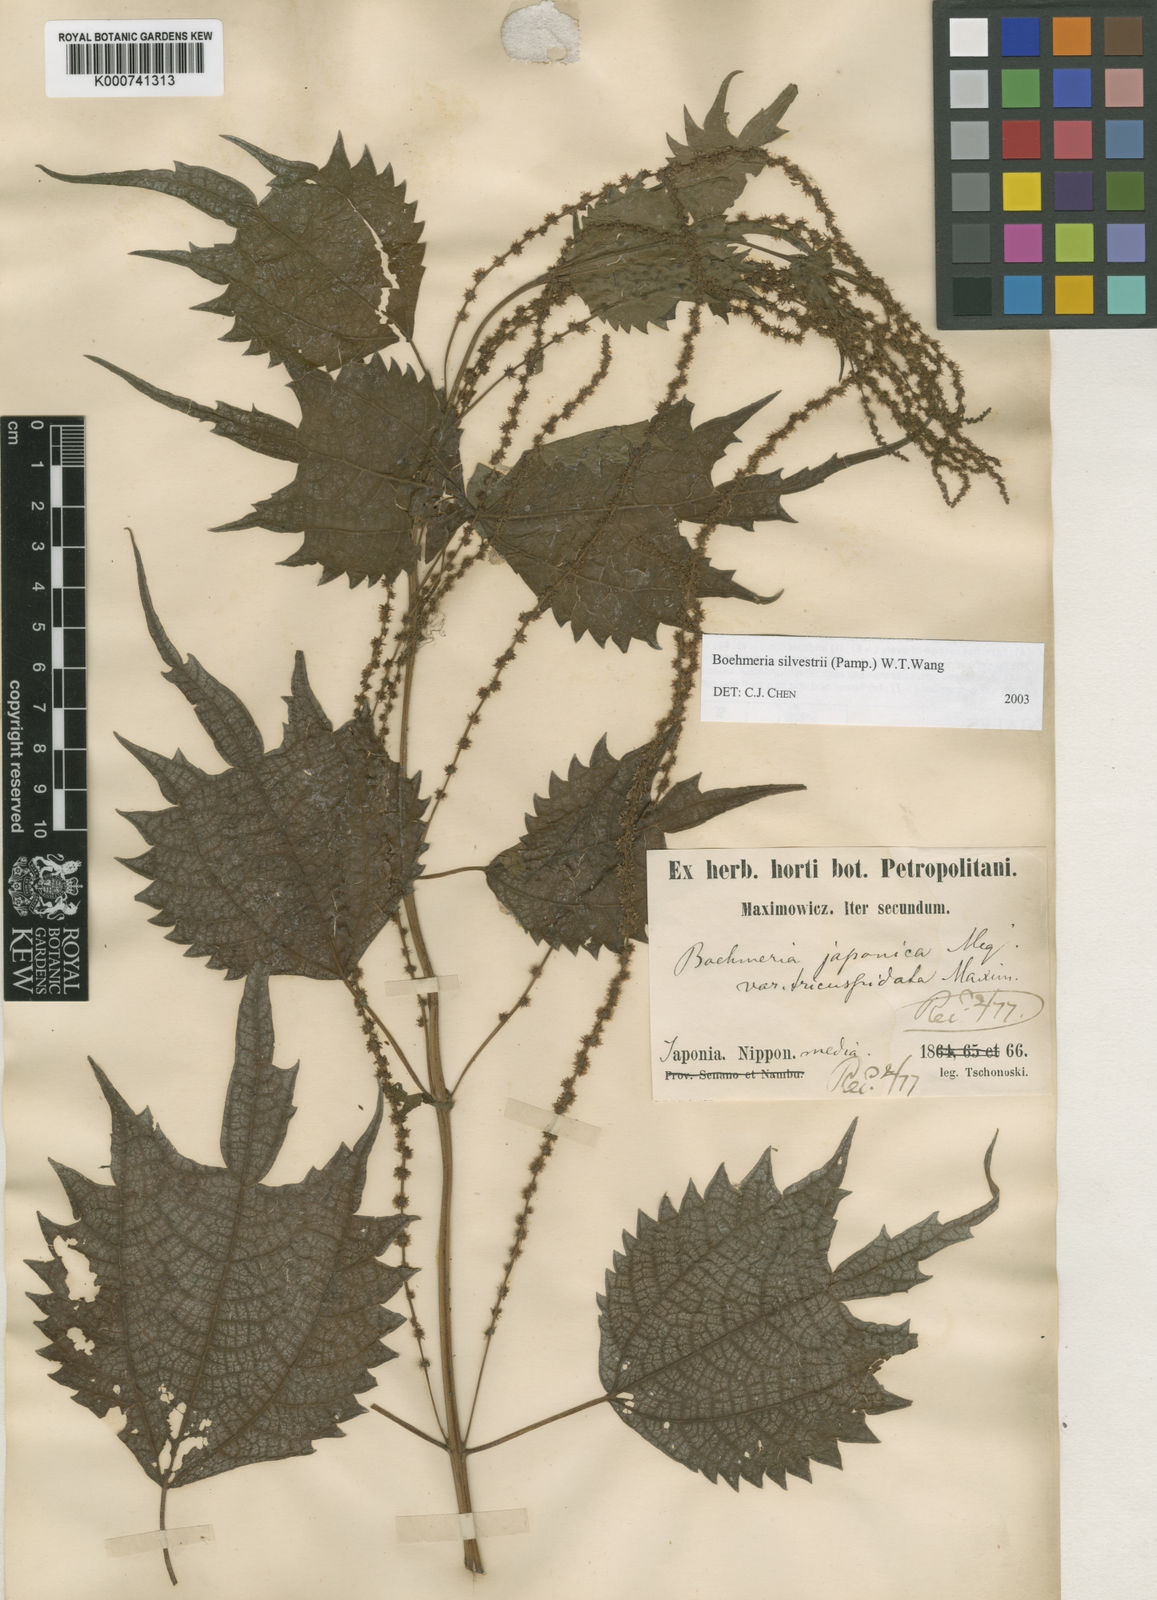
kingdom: Plantae
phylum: Tracheophyta
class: Magnoliopsida
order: Rosales
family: Urticaceae
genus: Boehmeria
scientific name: Boehmeria japonica
